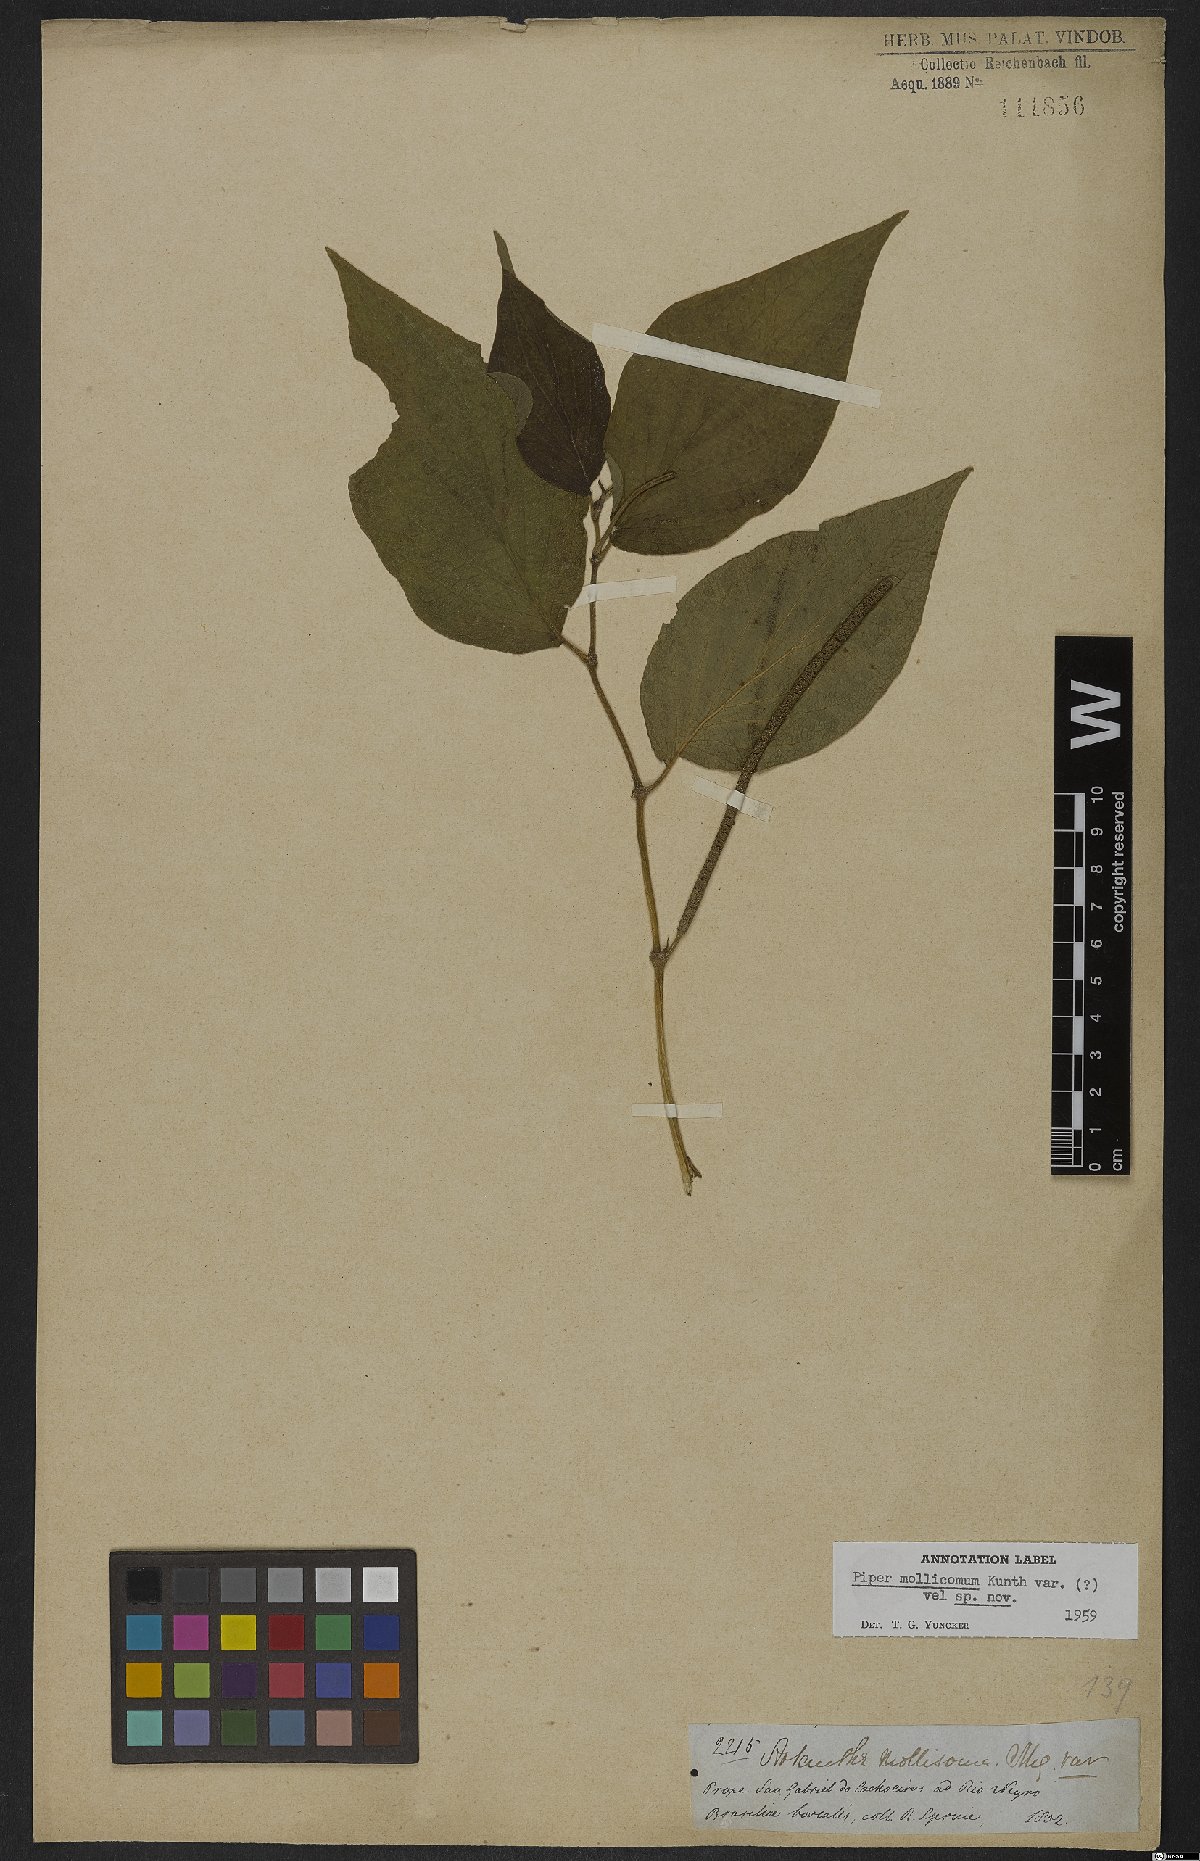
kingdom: Plantae
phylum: Tracheophyta
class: Magnoliopsida
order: Piperales
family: Piperaceae
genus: Piper
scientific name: Piper mollicomum
